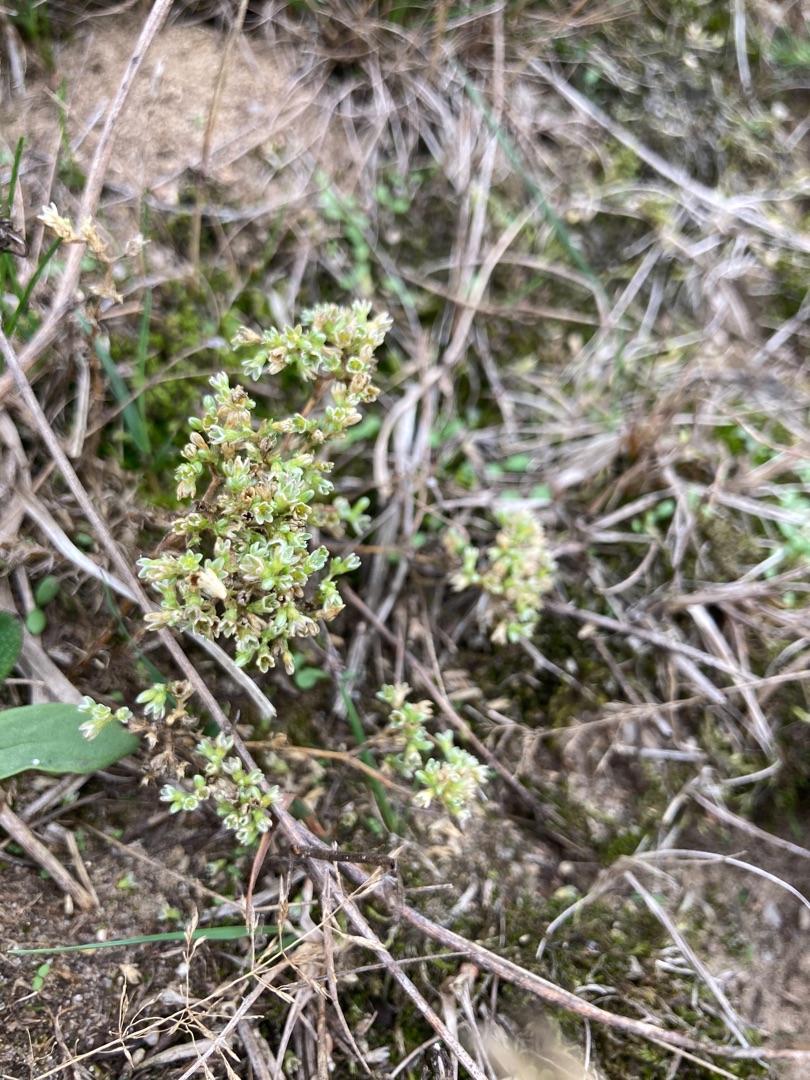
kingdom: Plantae
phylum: Tracheophyta
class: Magnoliopsida
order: Caryophyllales
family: Caryophyllaceae
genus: Scleranthus
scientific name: Scleranthus perennis
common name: Flerårig knavel
